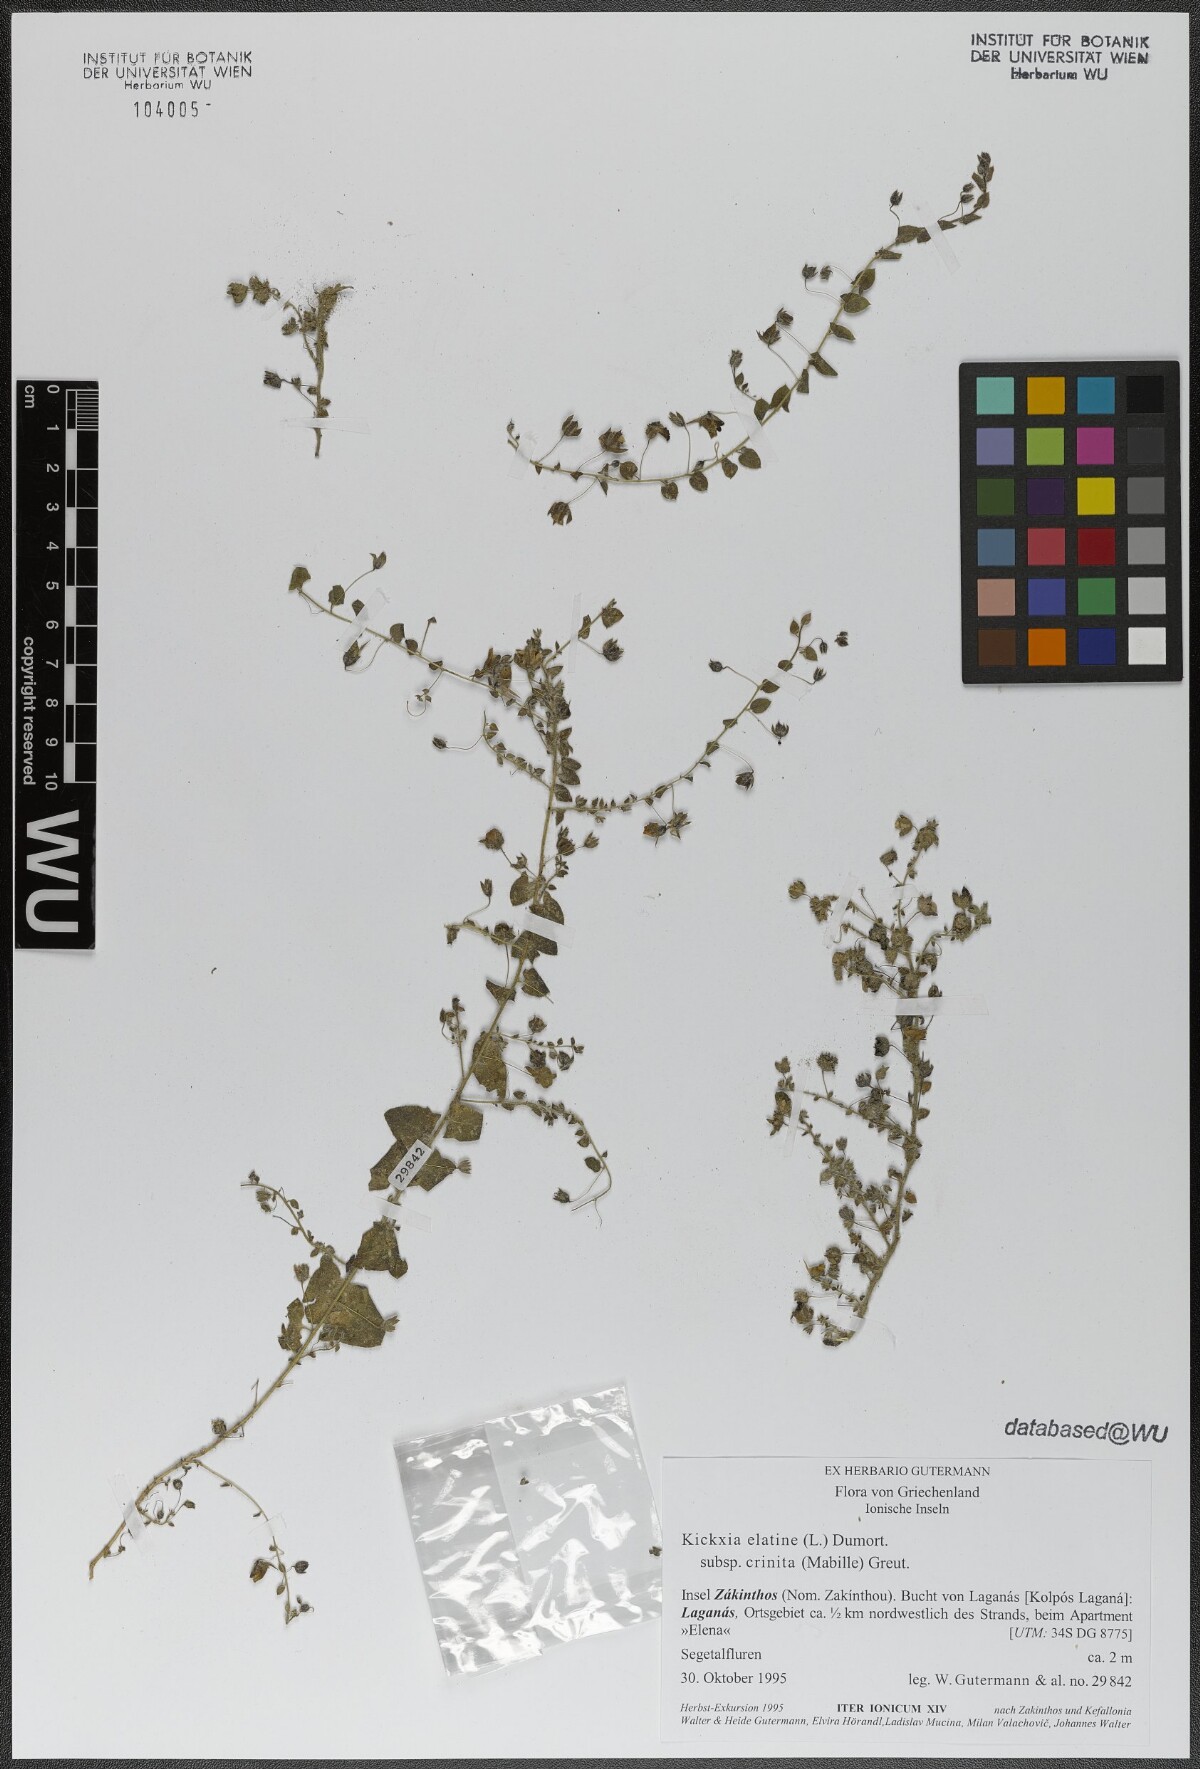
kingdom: Plantae
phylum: Tracheophyta
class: Magnoliopsida
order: Lamiales
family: Plantaginaceae
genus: Kickxia
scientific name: Kickxia elatine
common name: Sharp-leaved fluellen
